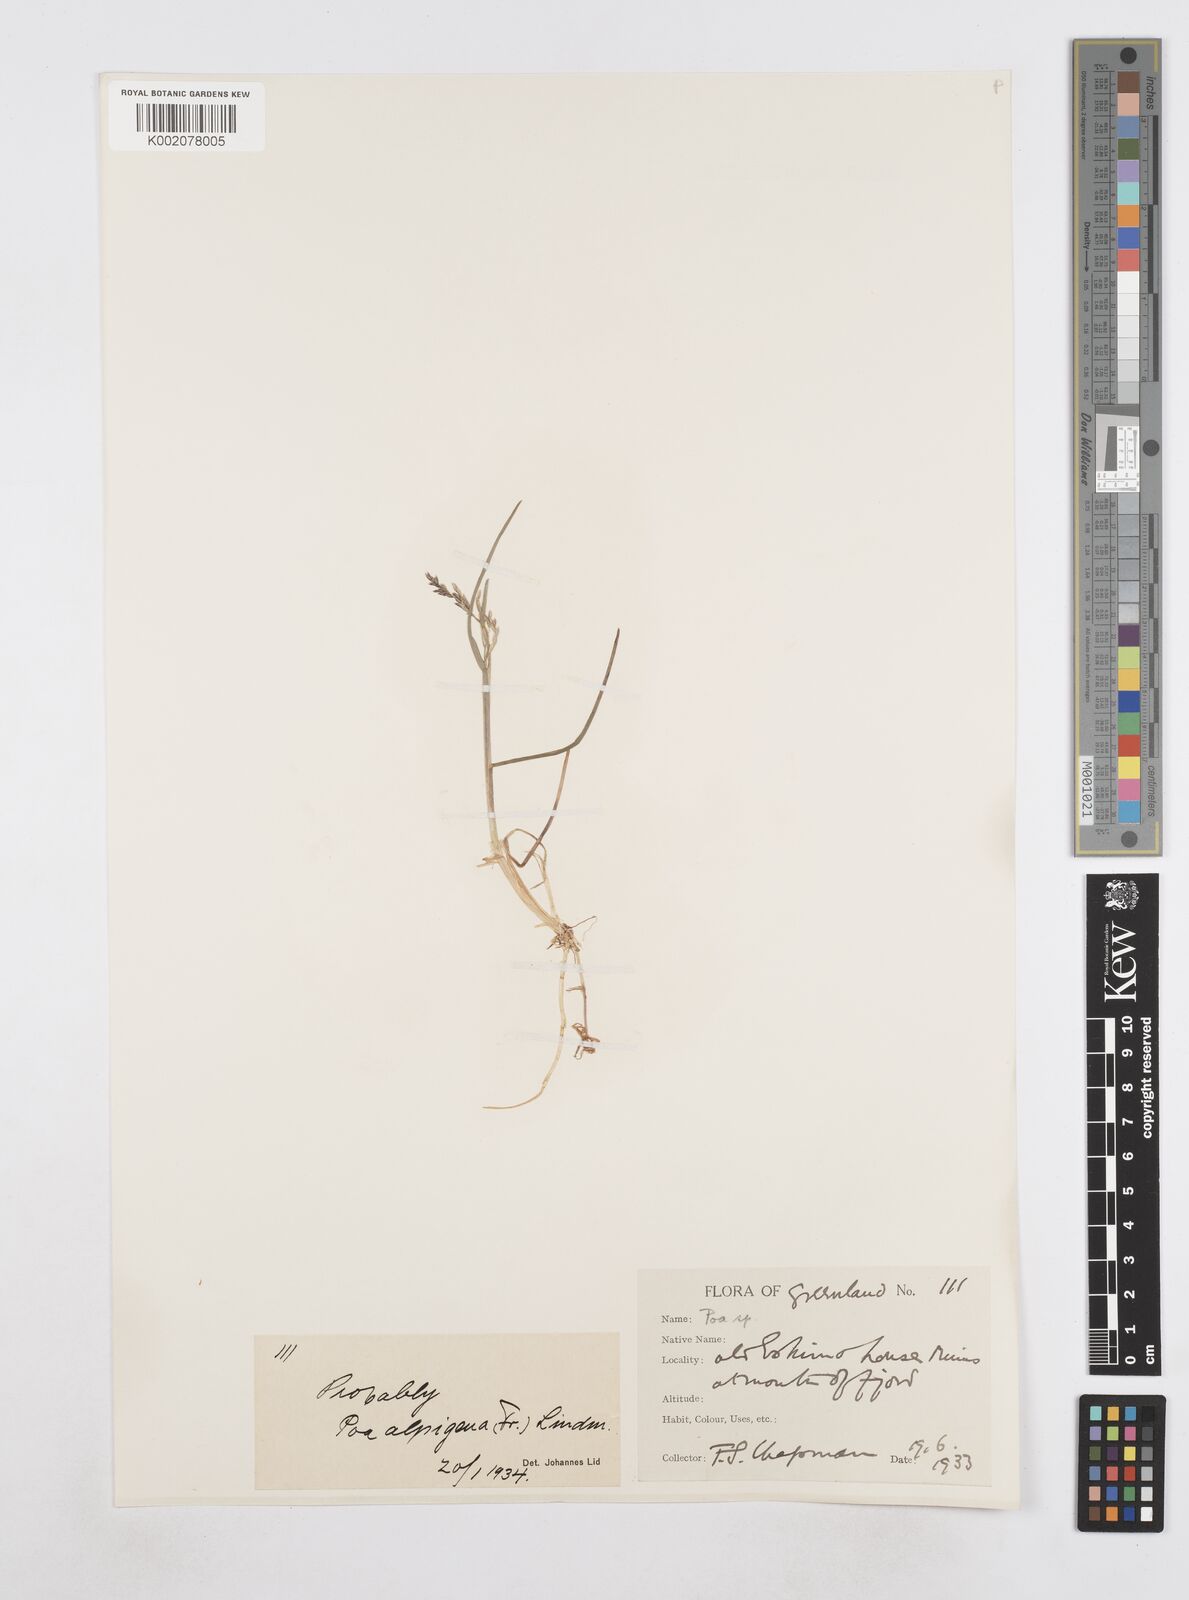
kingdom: Plantae
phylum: Tracheophyta
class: Liliopsida
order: Poales
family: Poaceae
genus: Poa
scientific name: Poa
